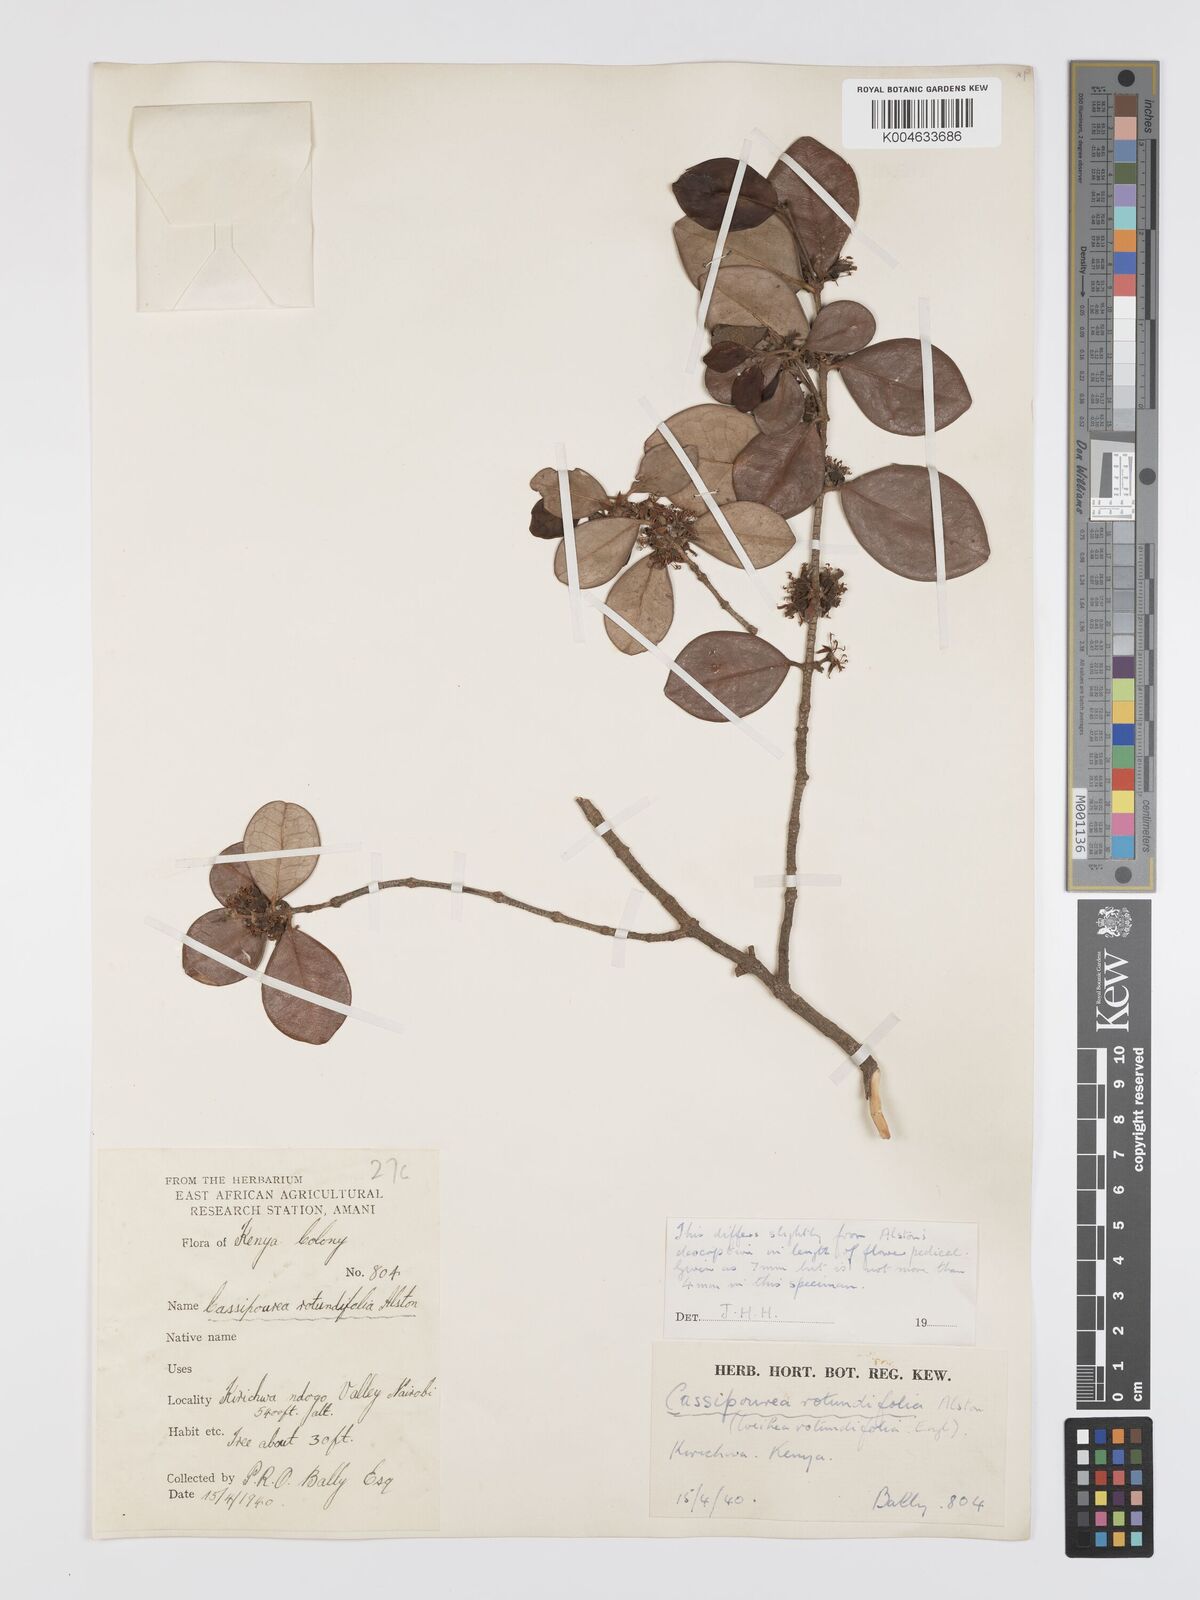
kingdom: Plantae
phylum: Tracheophyta
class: Magnoliopsida
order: Malpighiales
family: Rhizophoraceae
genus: Cassipourea
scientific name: Cassipourea rotundifolia
